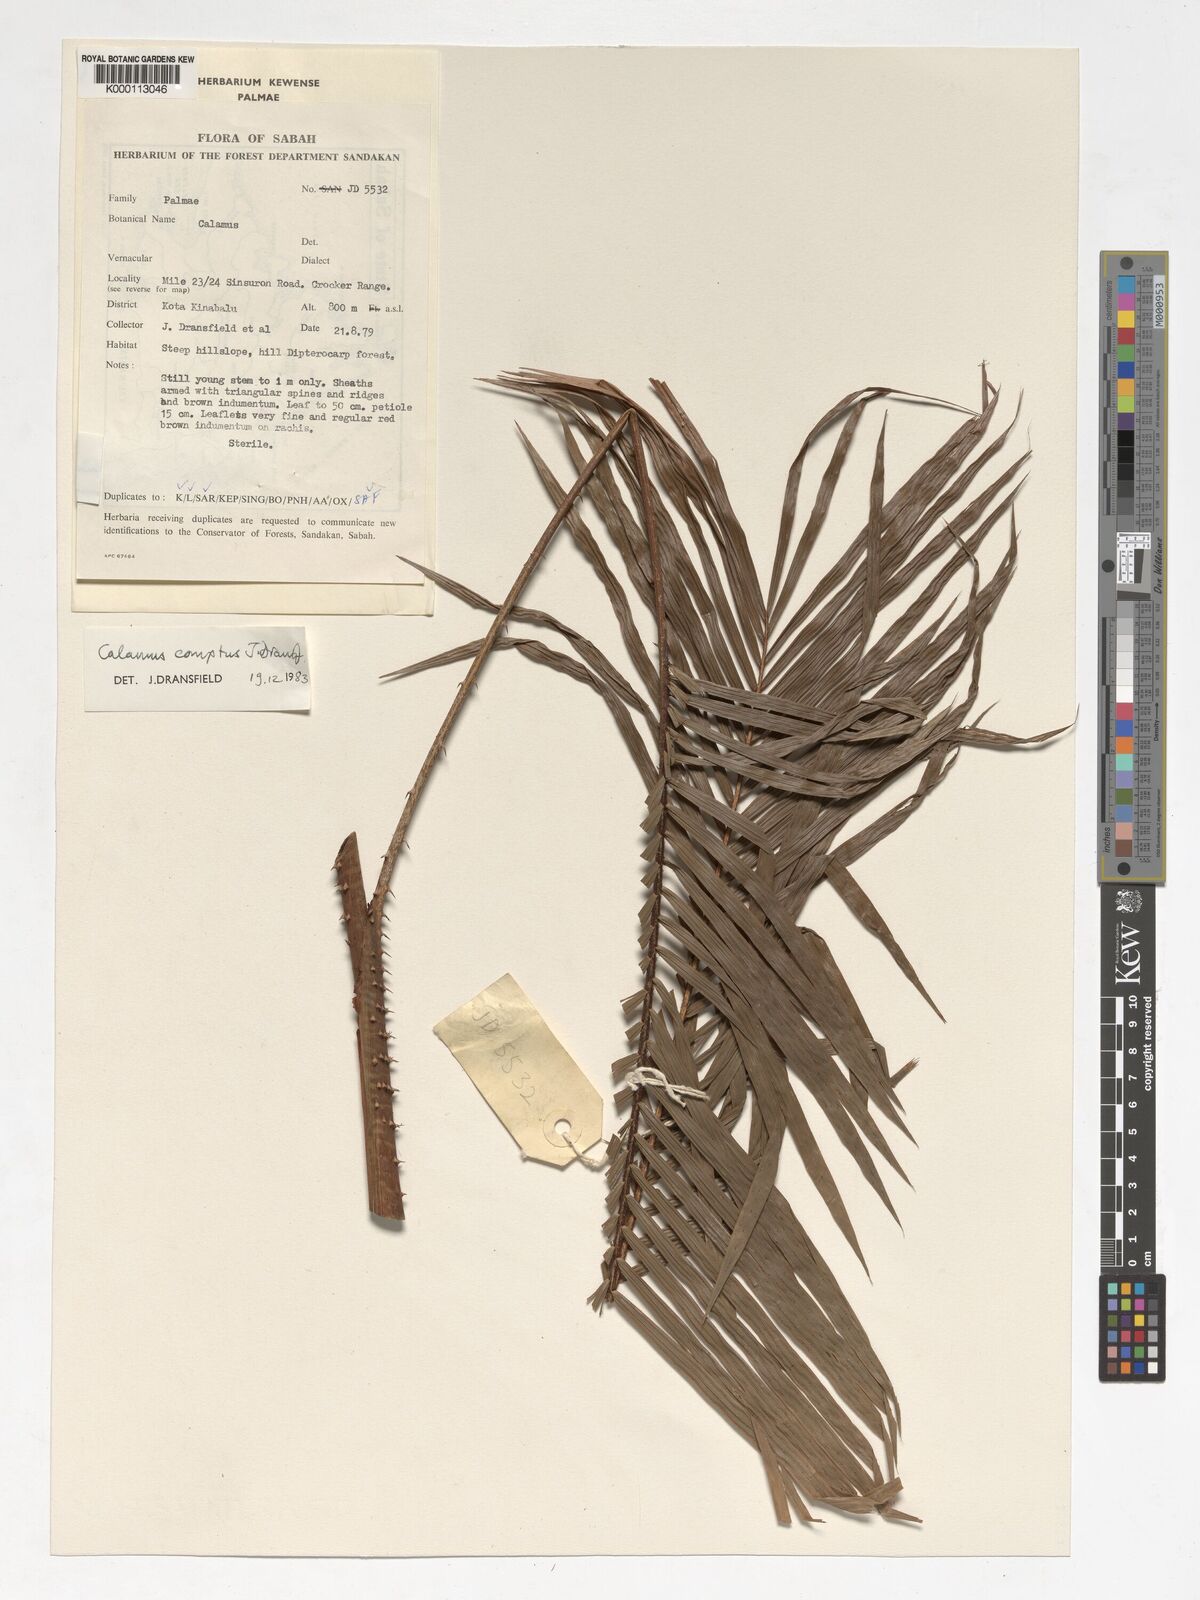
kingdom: Plantae
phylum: Tracheophyta
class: Liliopsida
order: Arecales
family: Arecaceae
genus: Calamus
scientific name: Calamus comptus
